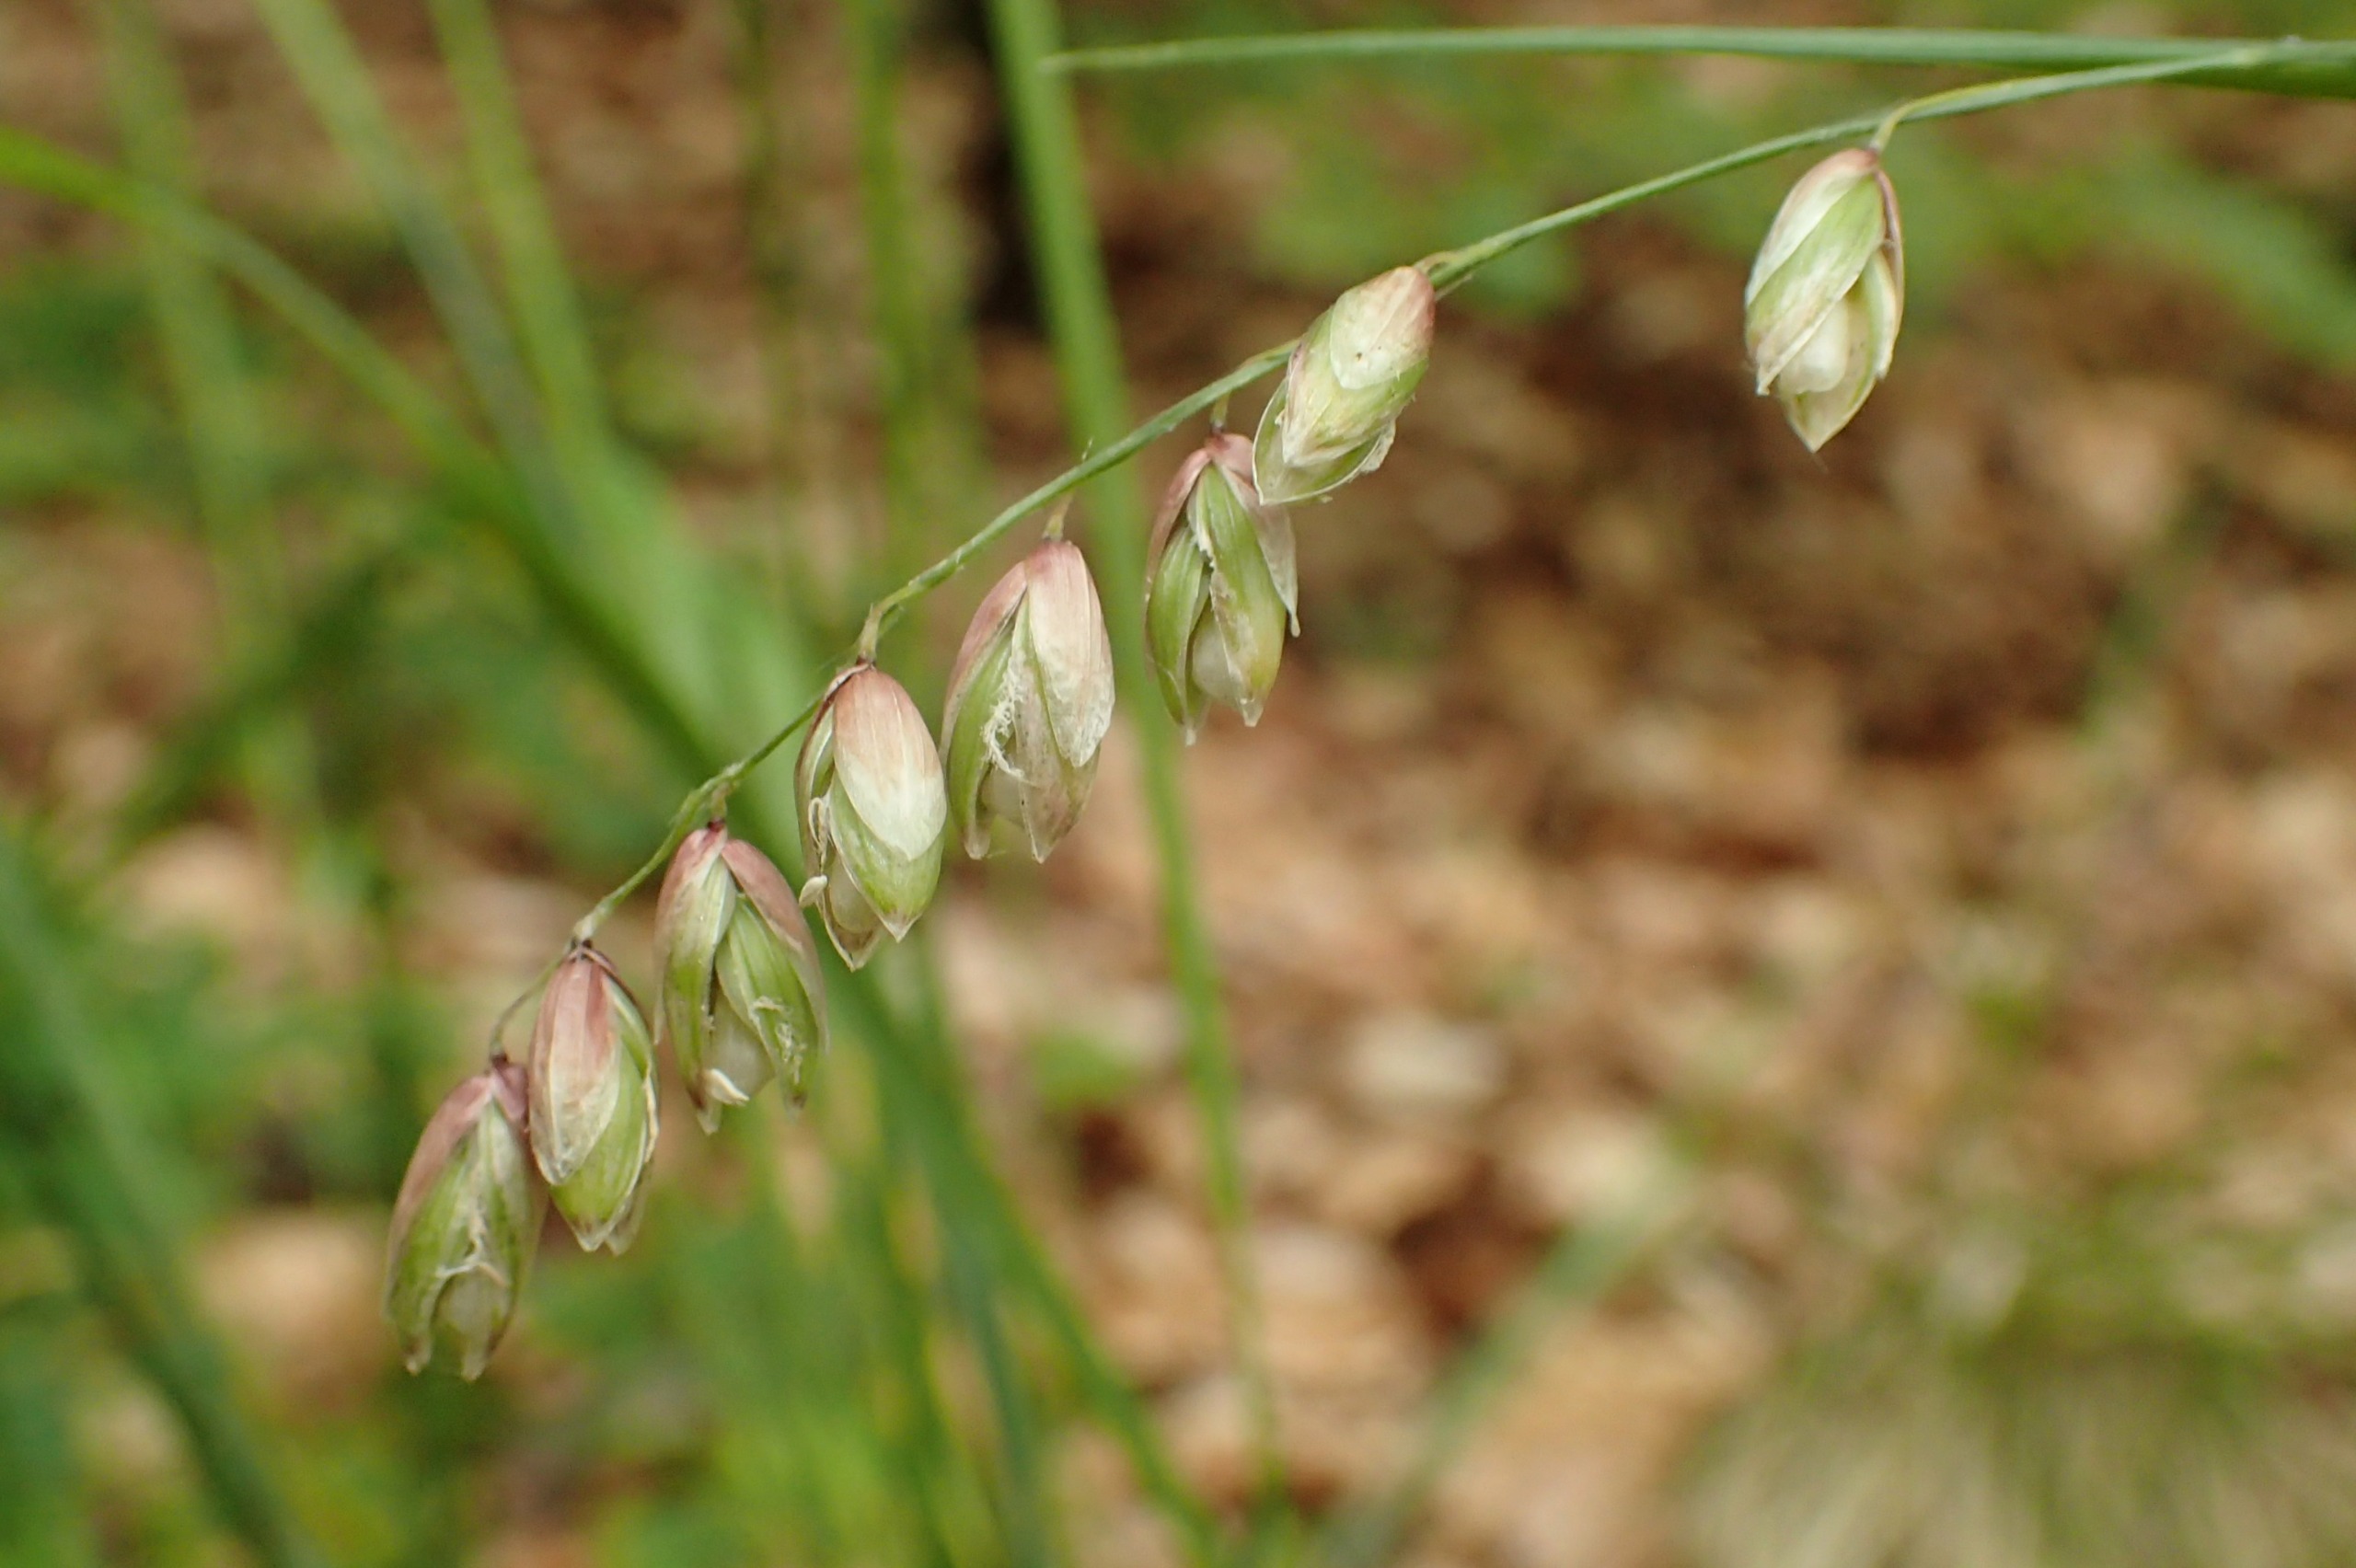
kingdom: Plantae
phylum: Tracheophyta
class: Liliopsida
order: Poales
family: Poaceae
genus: Melica
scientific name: Melica nutans
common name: Nikkende flitteraks
